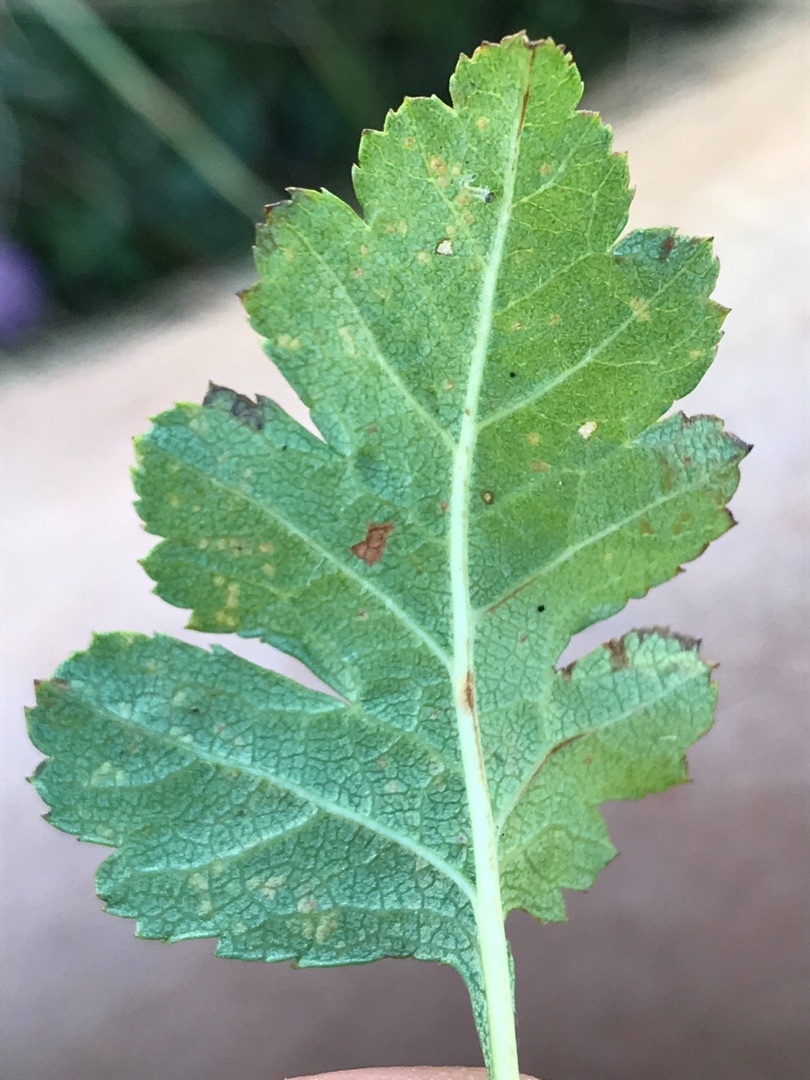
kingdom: Plantae
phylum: Tracheophyta
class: Magnoliopsida
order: Rosales
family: Rosaceae
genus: Crataegus
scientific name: Crataegus subsphaerica
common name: Engriflet hvidtjørn × koral-hvidtjørn
